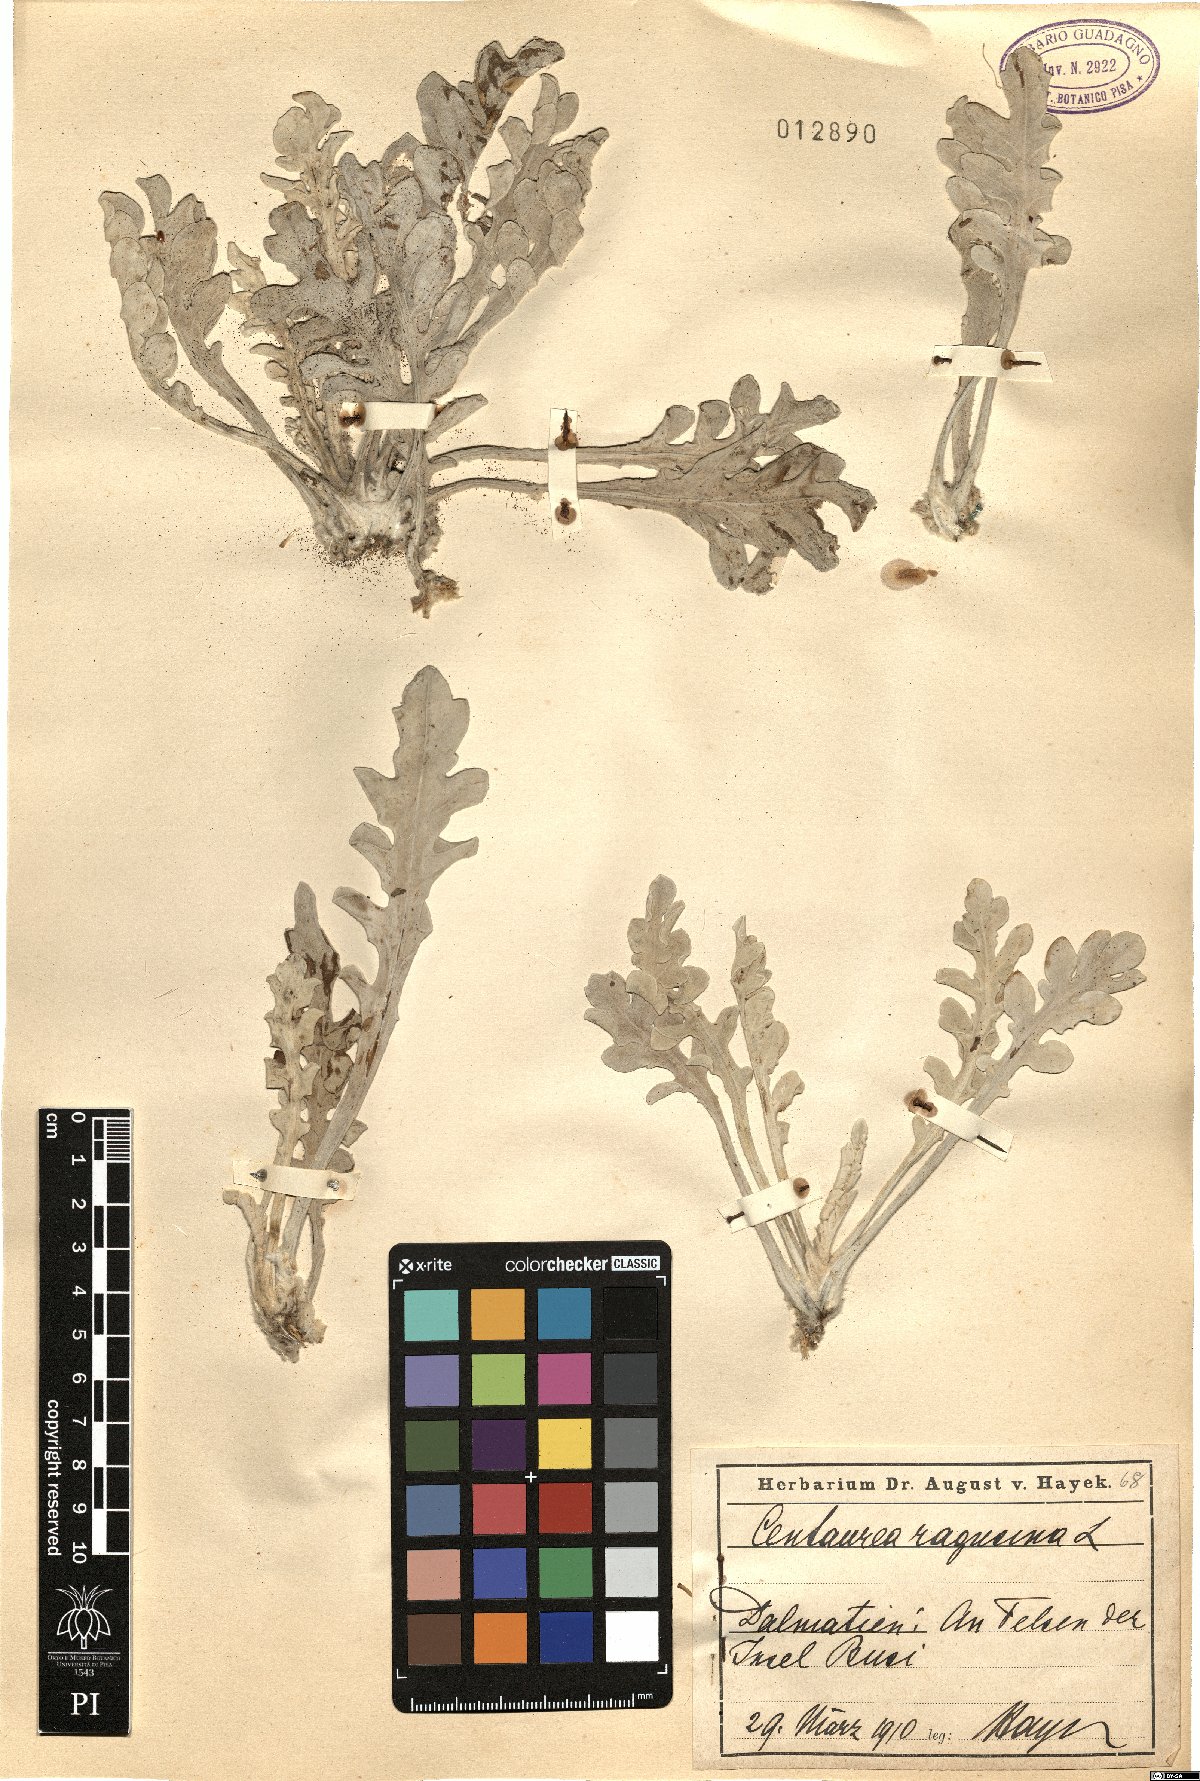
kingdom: Plantae
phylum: Tracheophyta
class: Magnoliopsida
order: Asterales
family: Asteraceae
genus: Centaurea
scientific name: Centaurea ragusina
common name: Dusty-miller
